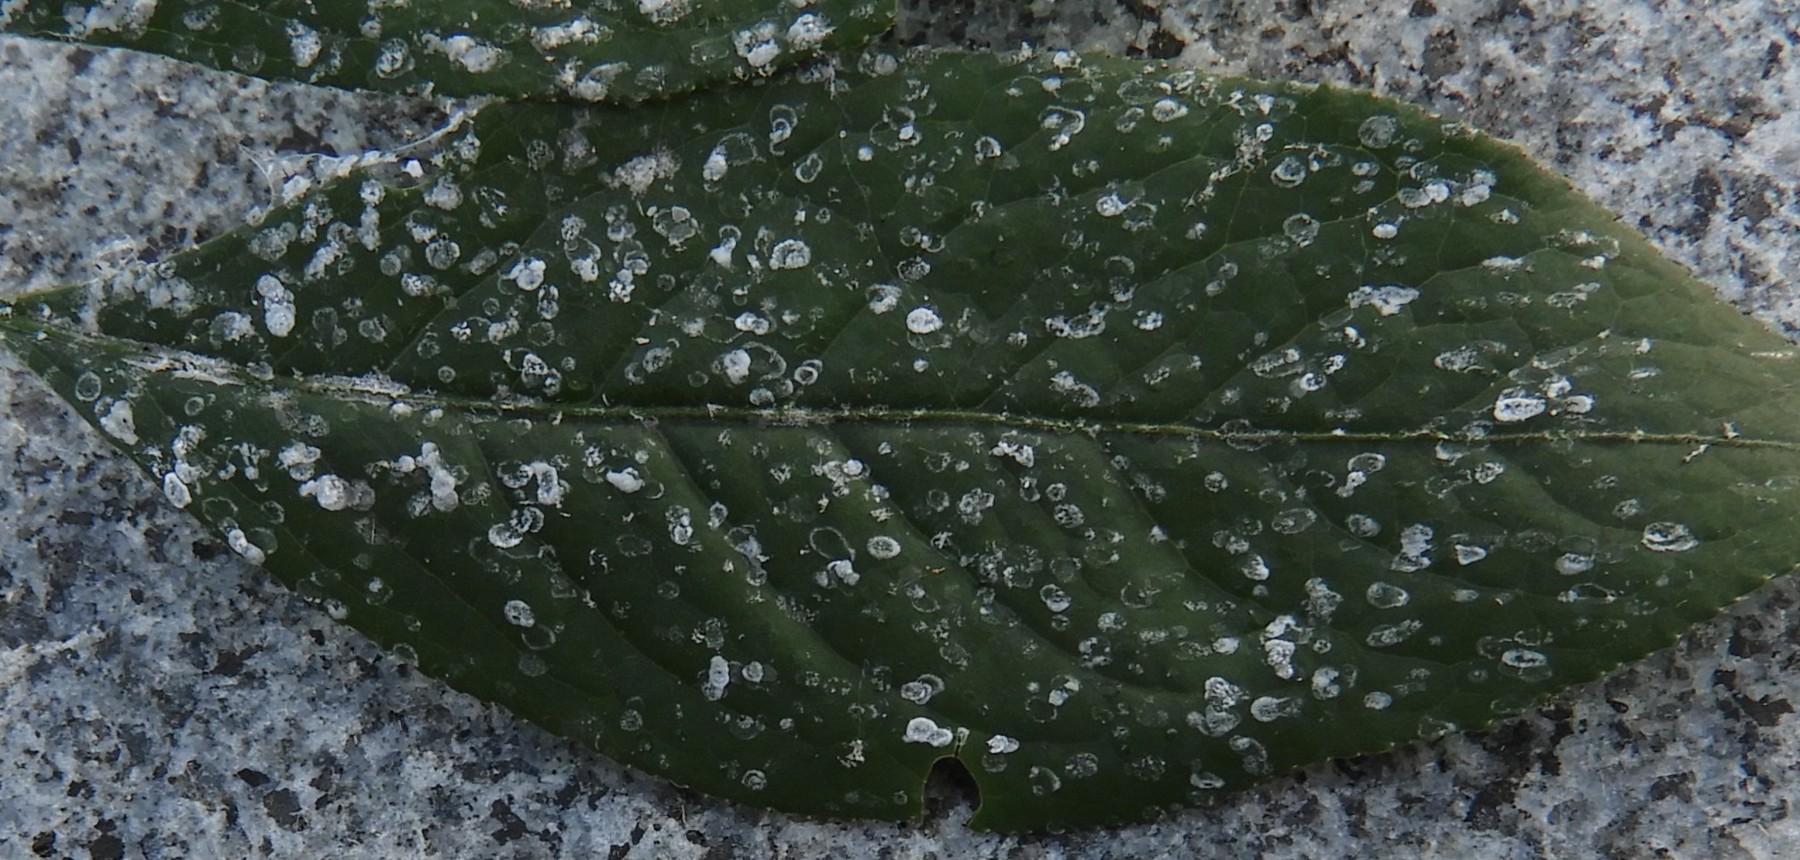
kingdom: Fungi
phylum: Ascomycota
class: Leotiomycetes
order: Helotiales
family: Erysiphaceae
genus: Erysiphe
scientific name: Erysiphe euonymi
